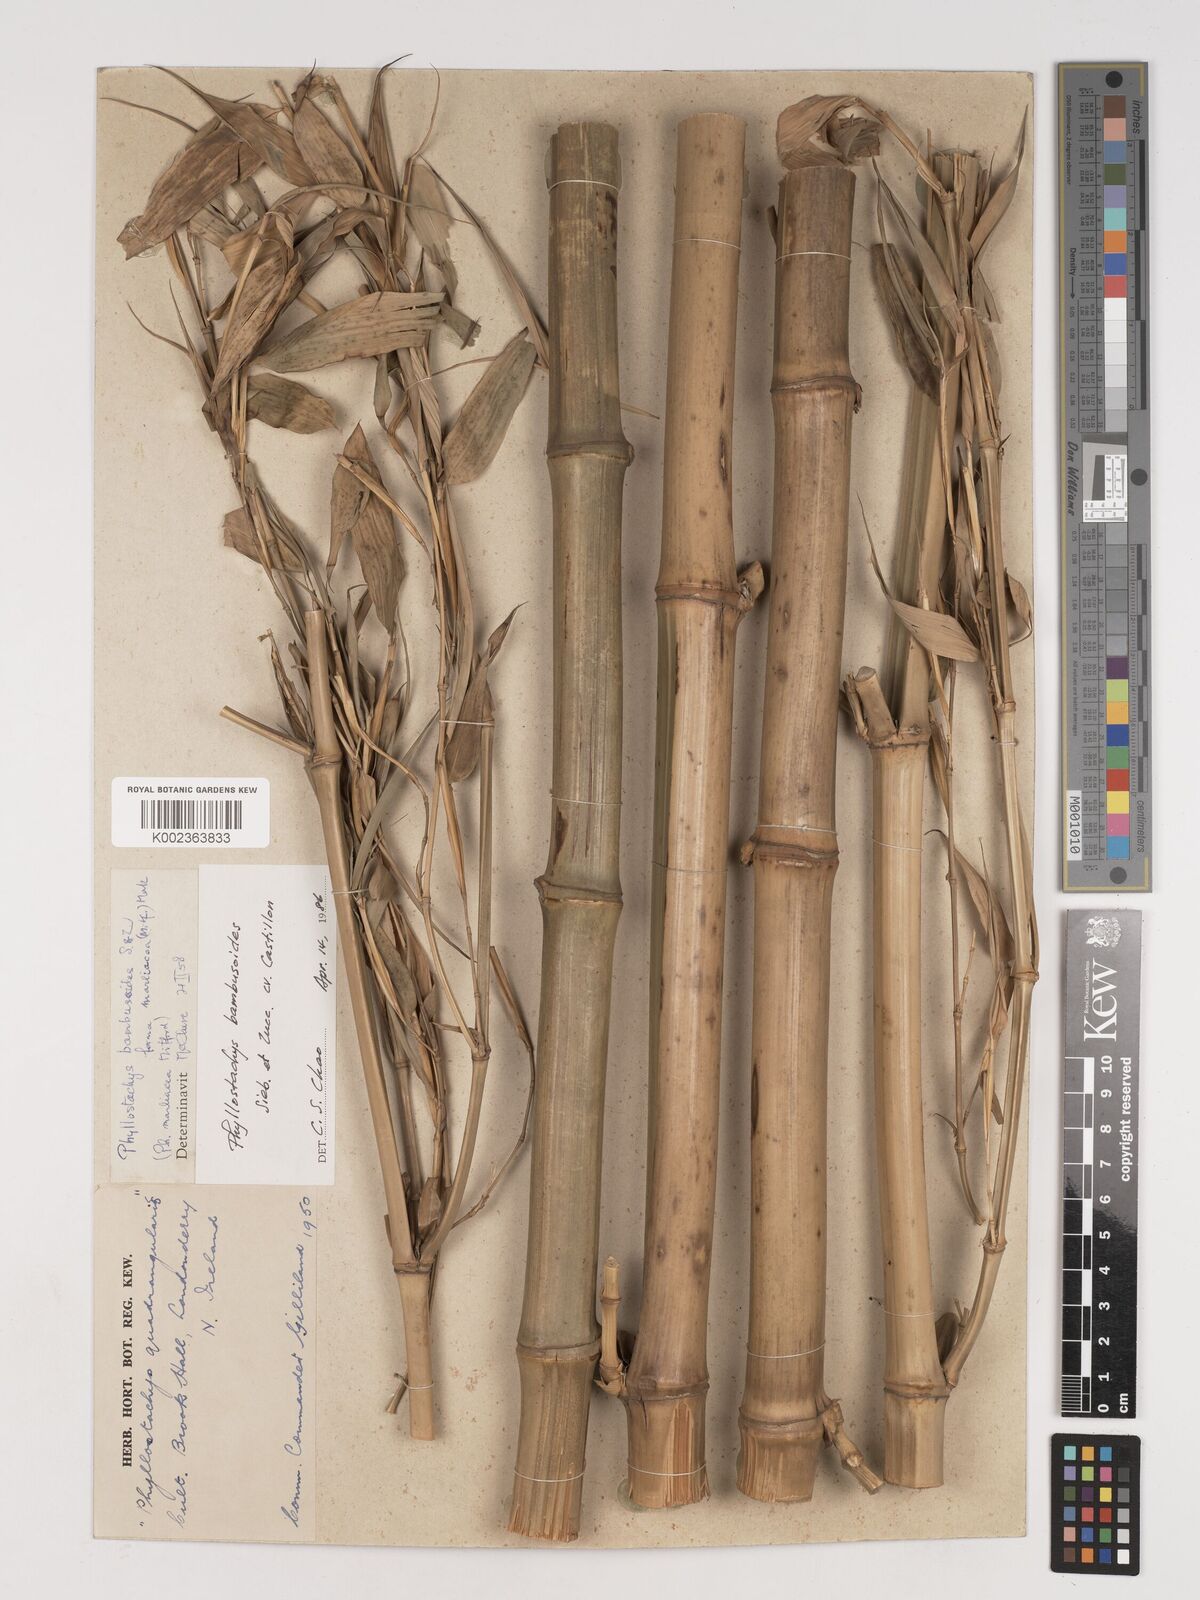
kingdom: Plantae
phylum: Tracheophyta
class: Liliopsida
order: Poales
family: Poaceae
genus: Phyllostachys
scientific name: Phyllostachys reticulata
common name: Bamboo
